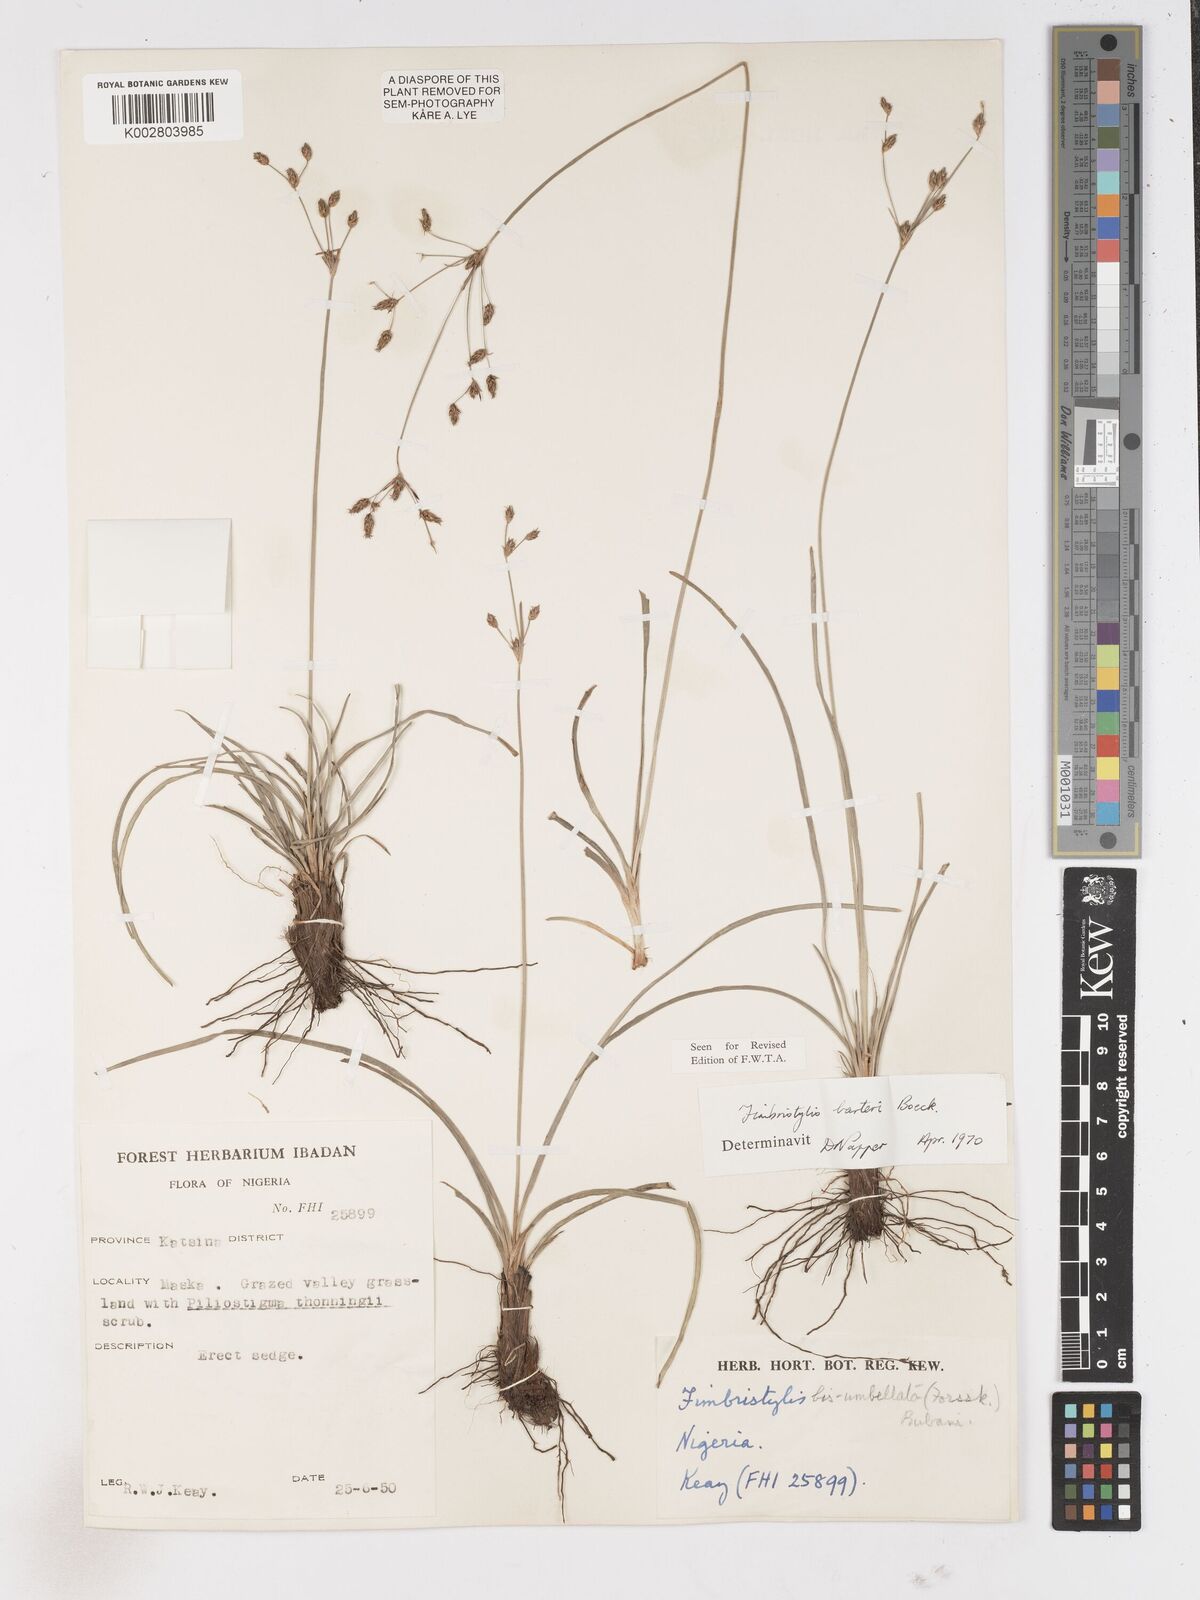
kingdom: Plantae
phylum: Tracheophyta
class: Liliopsida
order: Poales
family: Cyperaceae
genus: Fimbristylis
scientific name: Fimbristylis barteri
